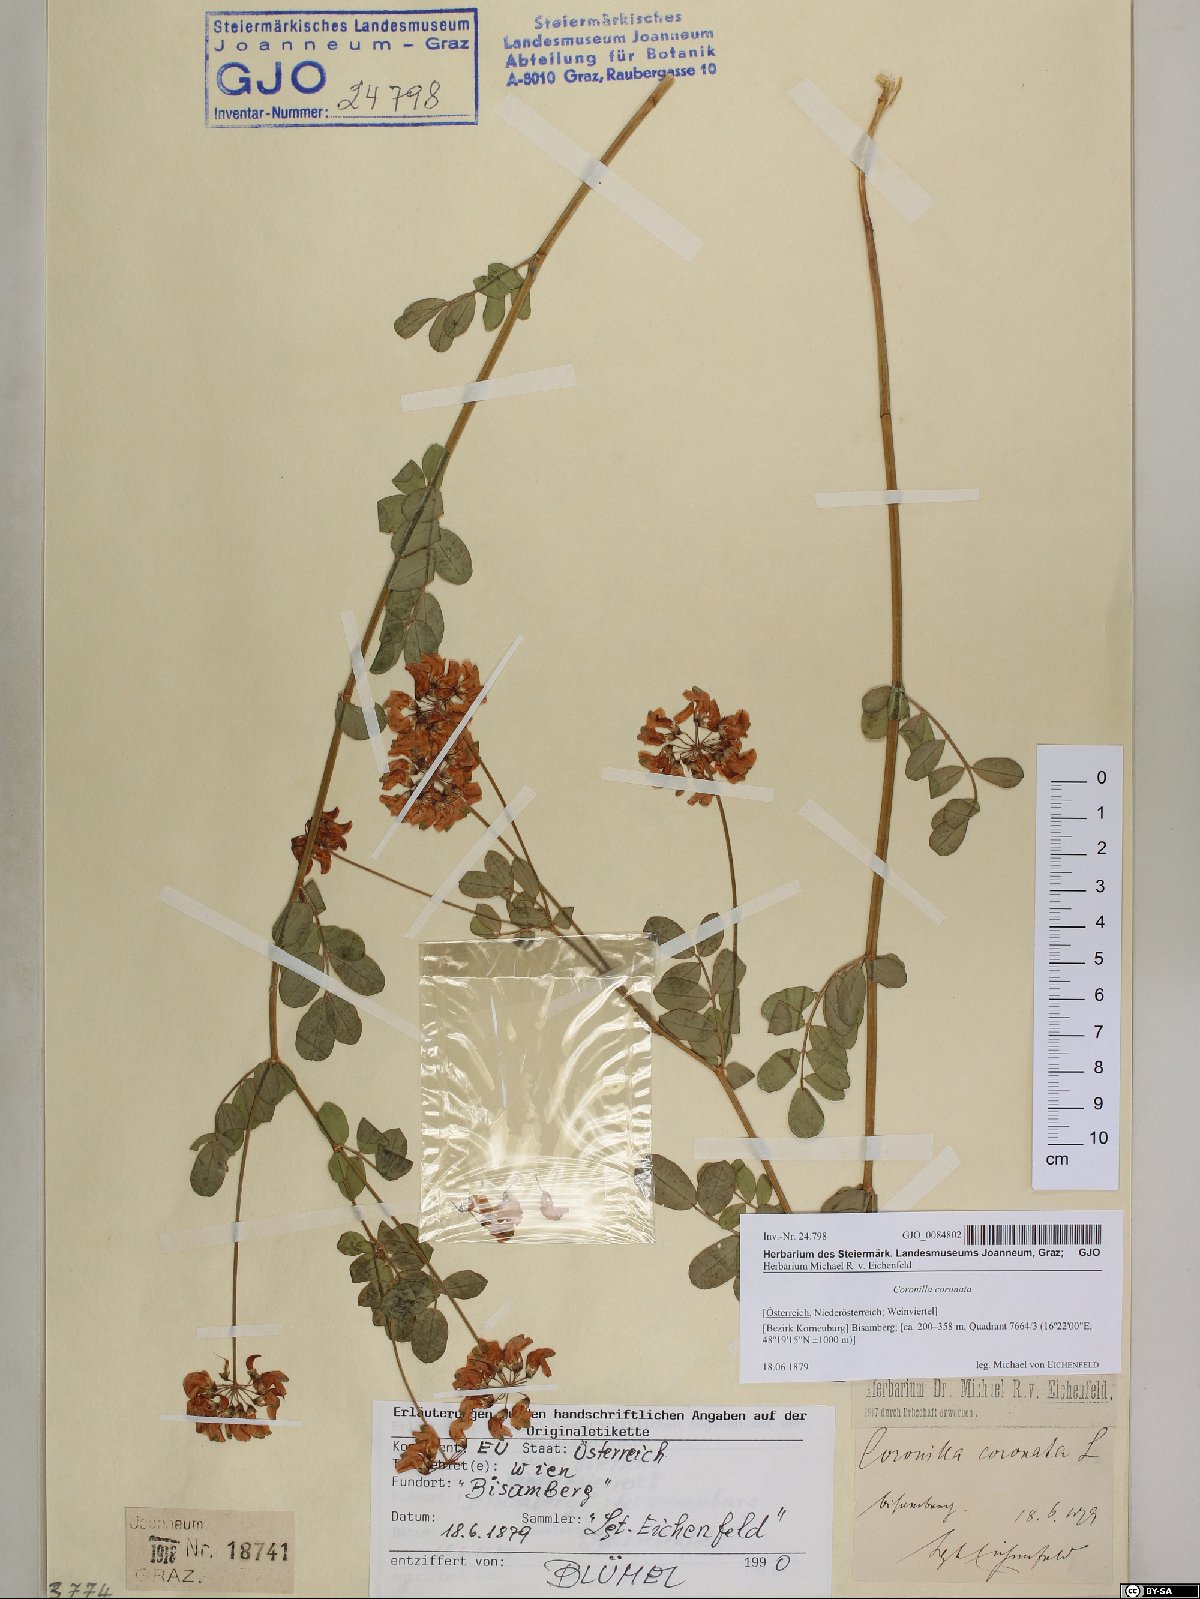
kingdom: Plantae
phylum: Tracheophyta
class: Magnoliopsida
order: Fabales
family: Fabaceae
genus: Coronilla
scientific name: Coronilla coronata
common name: Scorpion-vetch
